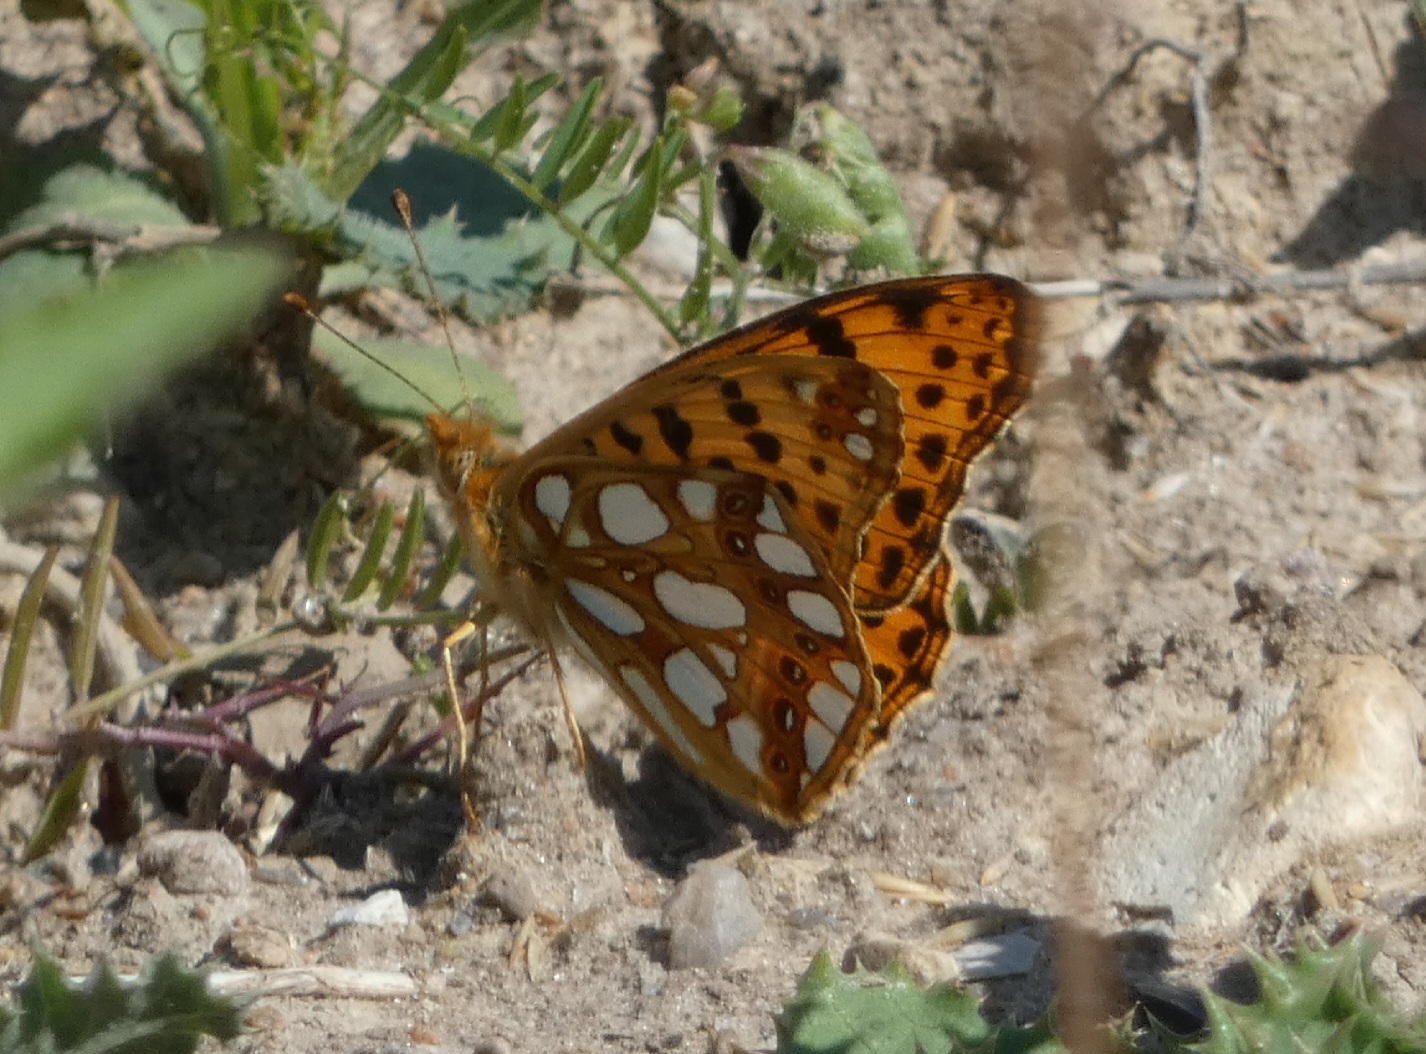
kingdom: Animalia
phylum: Arthropoda
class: Insecta
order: Lepidoptera
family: Nymphalidae
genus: Issoria
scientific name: Issoria lathonia
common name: Storplettet perlemorsommerfugl
